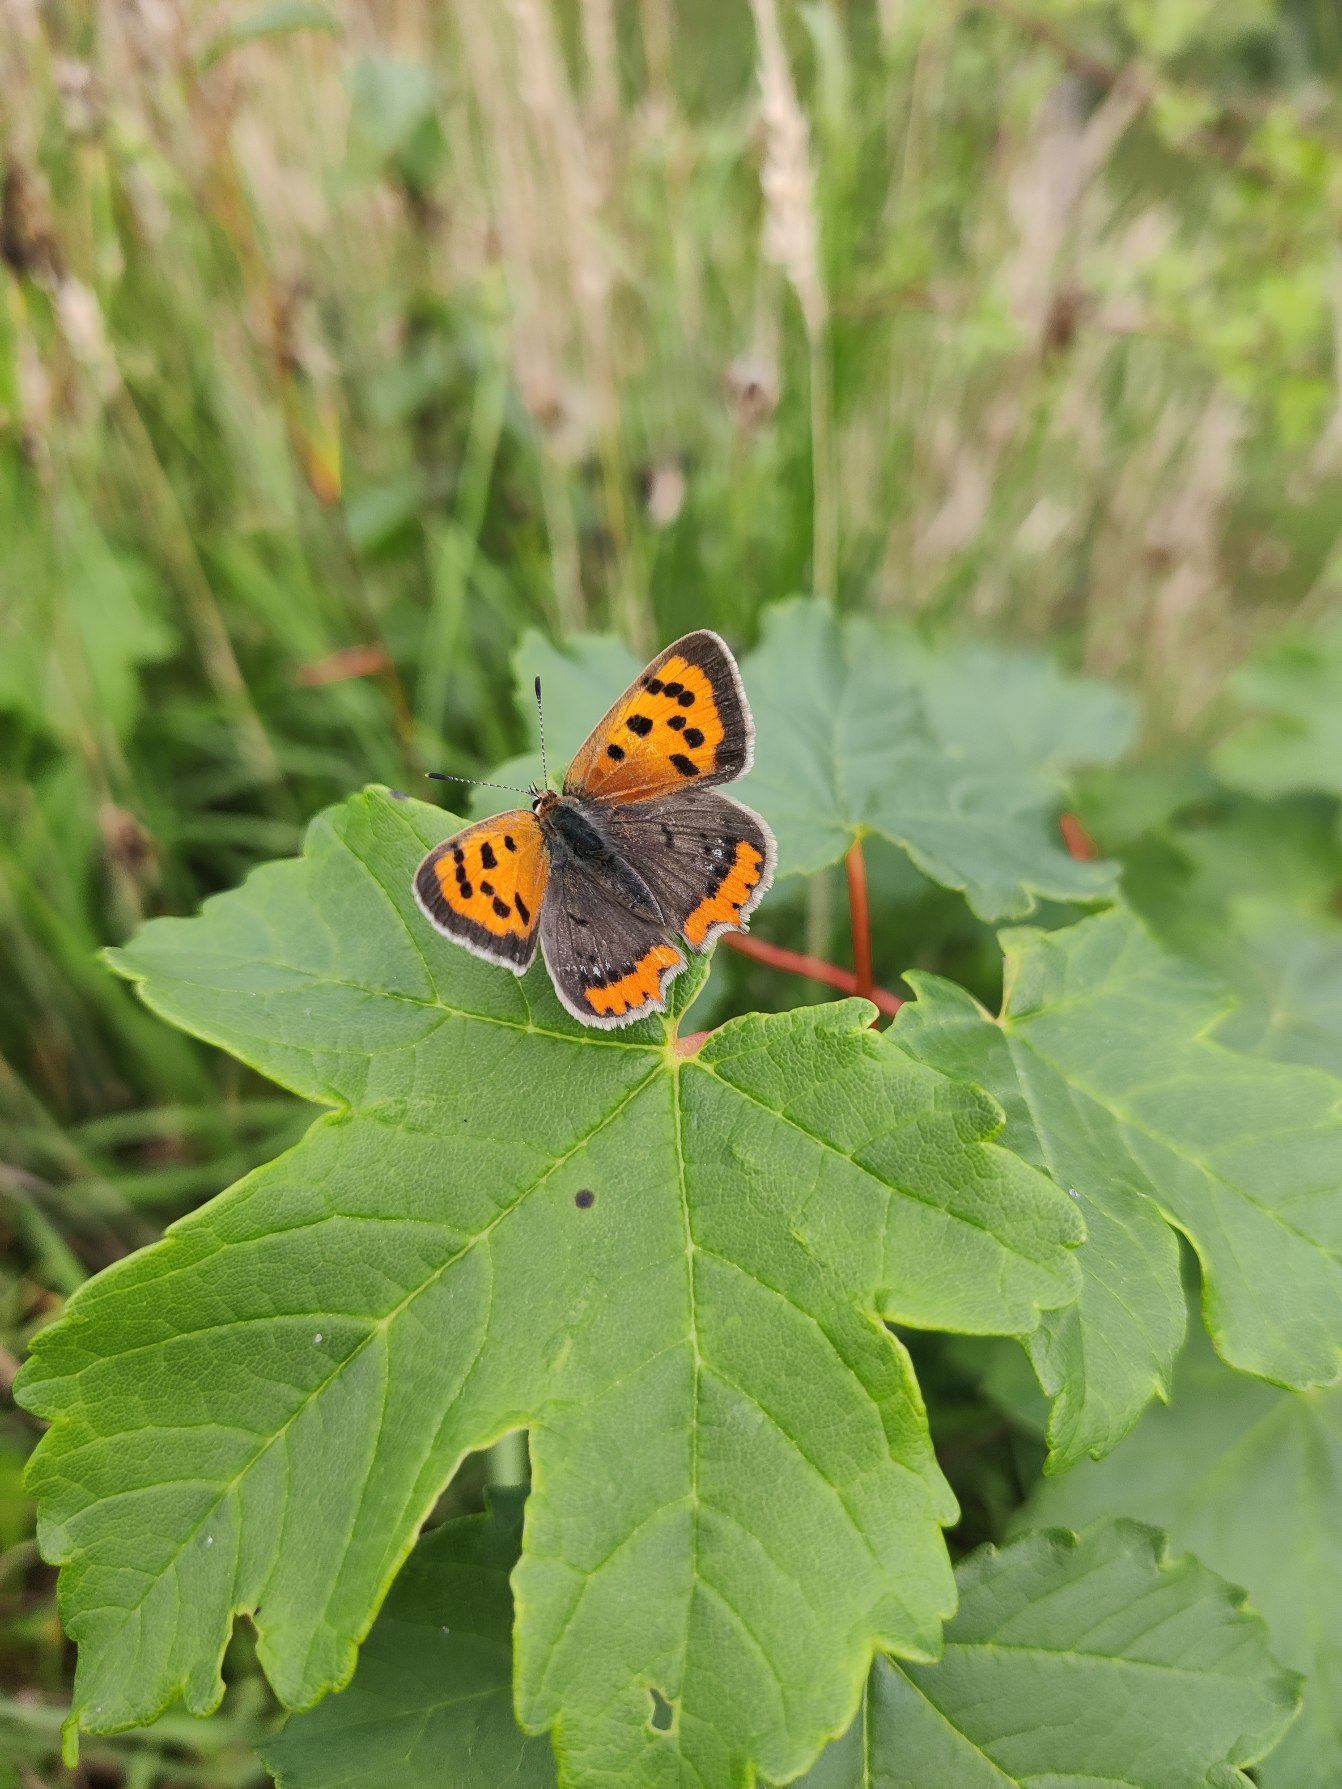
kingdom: Animalia
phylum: Arthropoda
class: Insecta
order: Lepidoptera
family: Lycaenidae
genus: Lycaena
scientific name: Lycaena phlaeas
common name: Lille ildfugl
